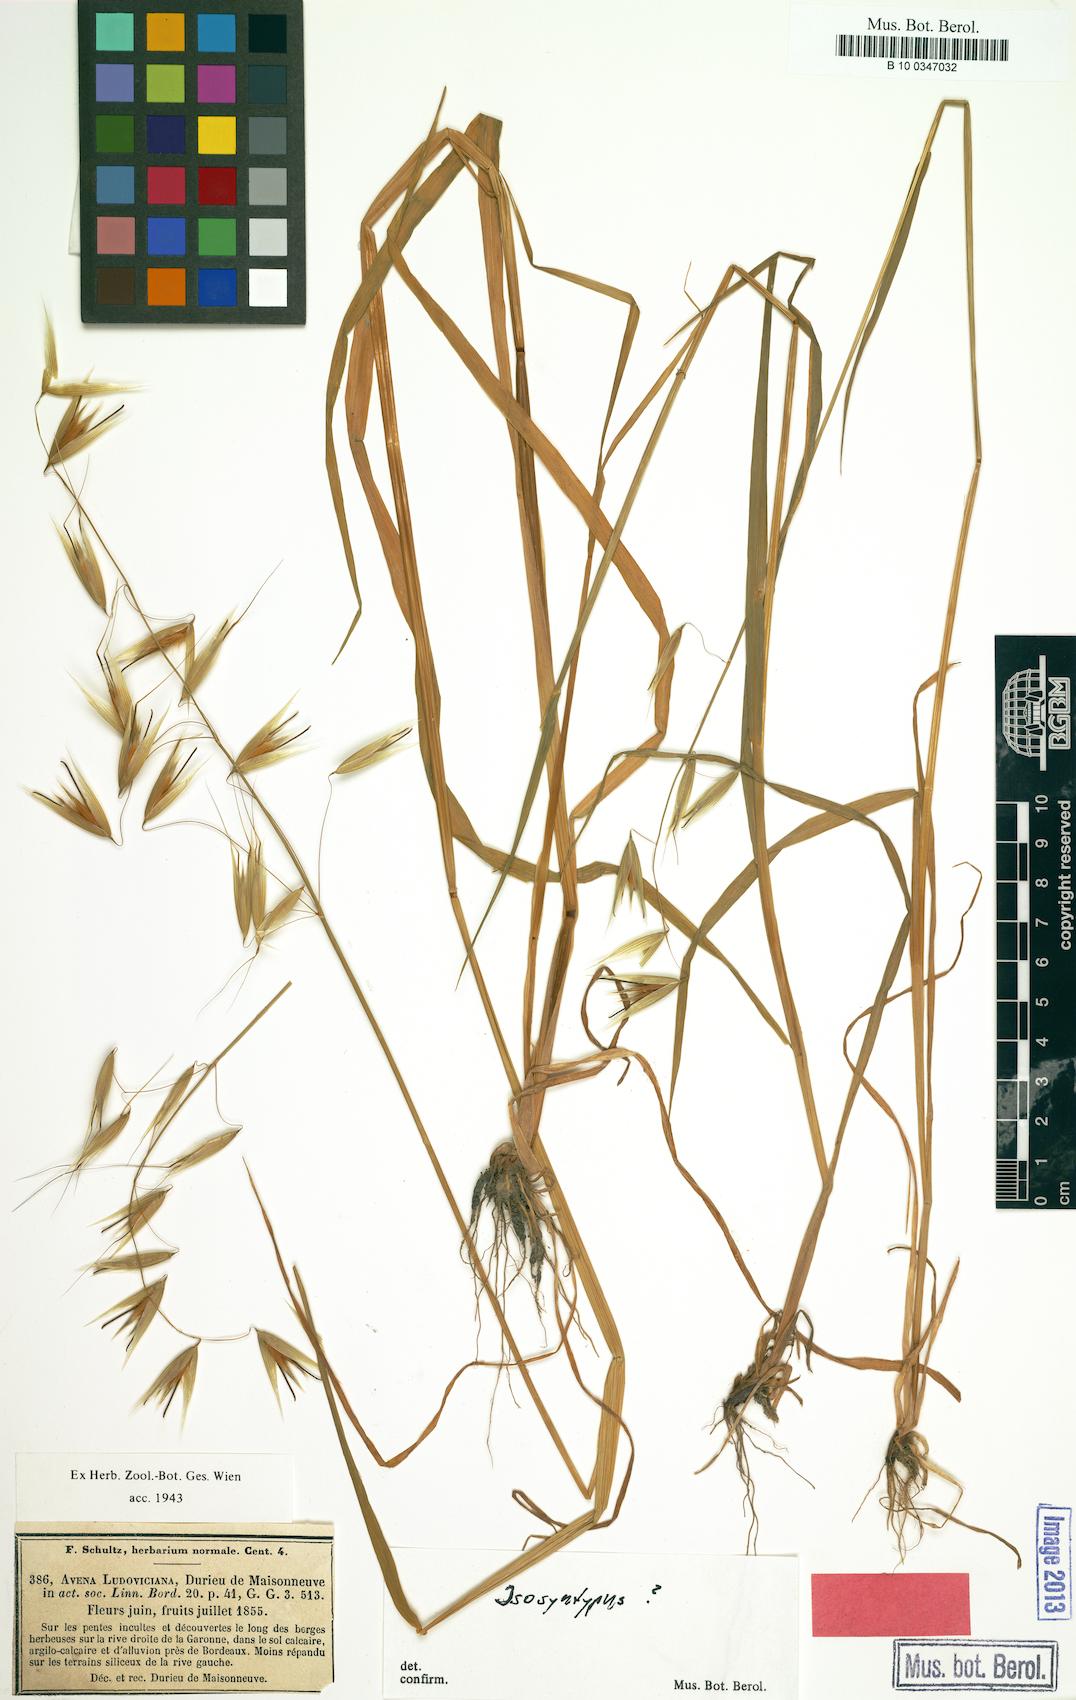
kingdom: Plantae
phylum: Tracheophyta
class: Liliopsida
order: Poales
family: Poaceae
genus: Avena
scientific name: Avena sterilis
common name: Animated oat
